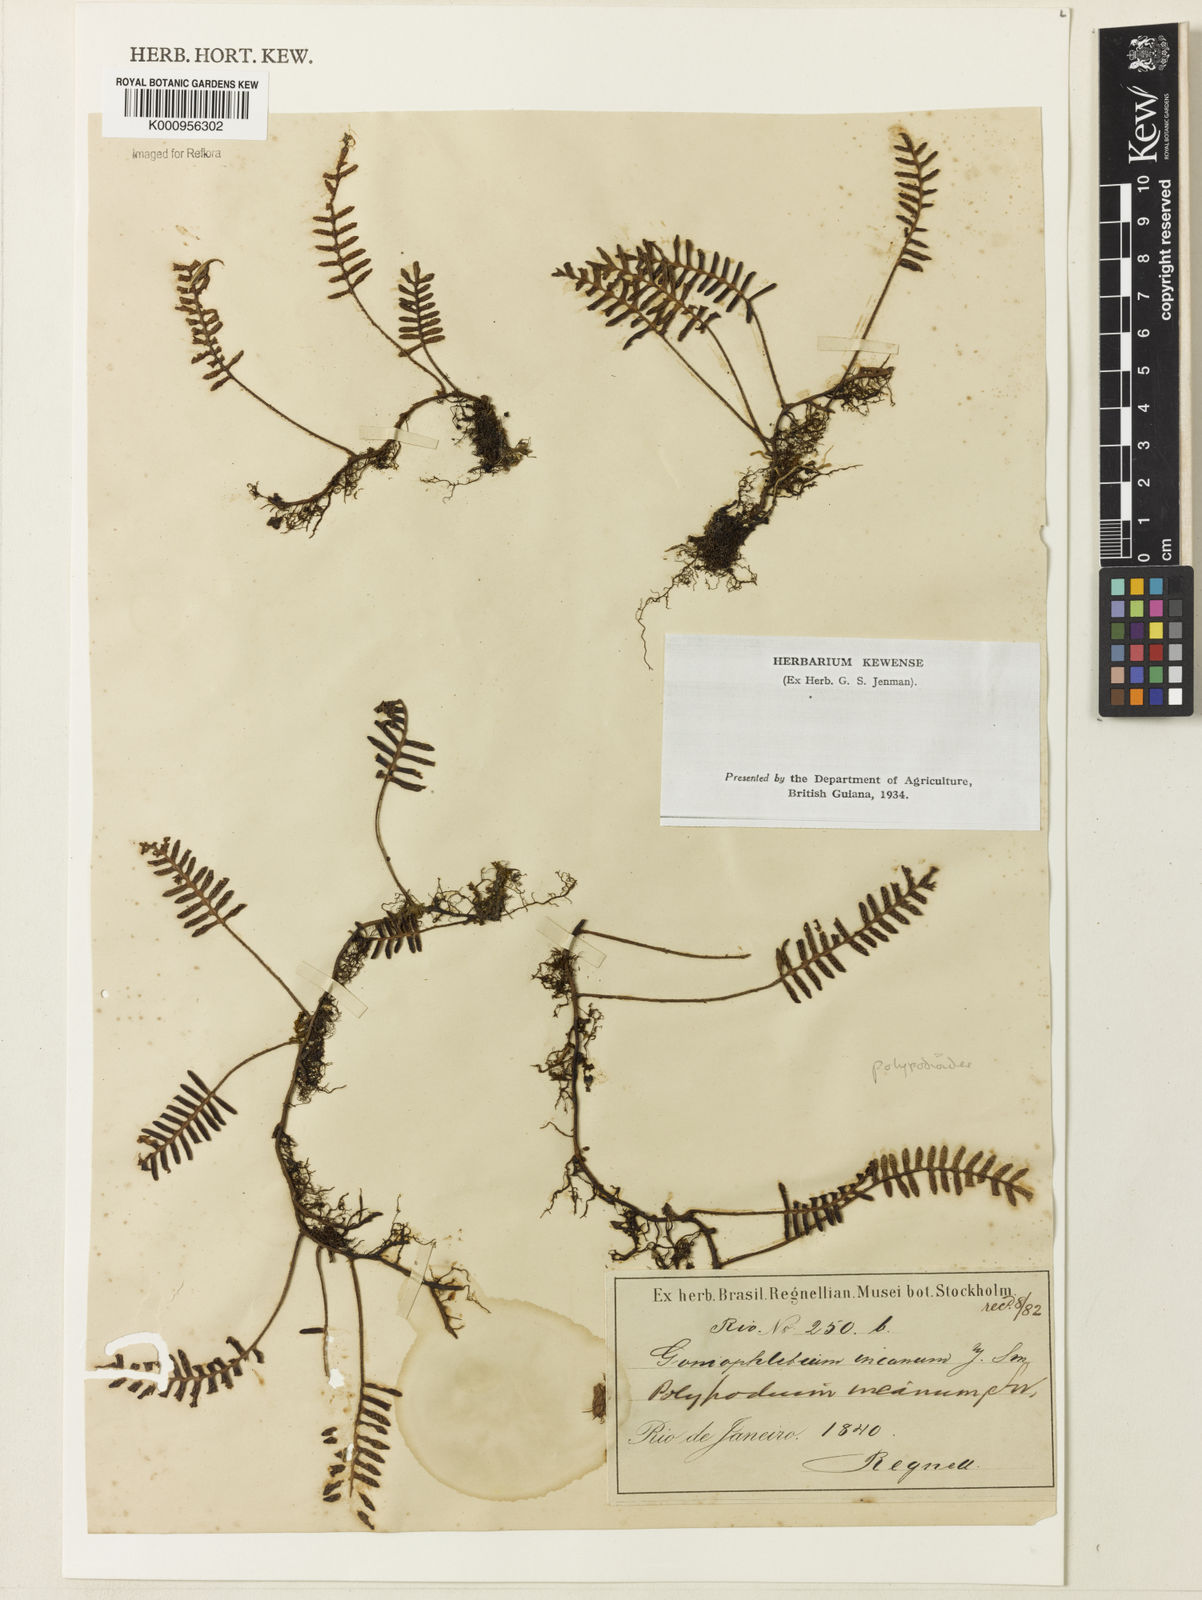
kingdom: Plantae
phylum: Tracheophyta
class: Polypodiopsida
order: Polypodiales
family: Polypodiaceae
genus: Pleopeltis
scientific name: Pleopeltis polypodioides
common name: Resurrection fern
